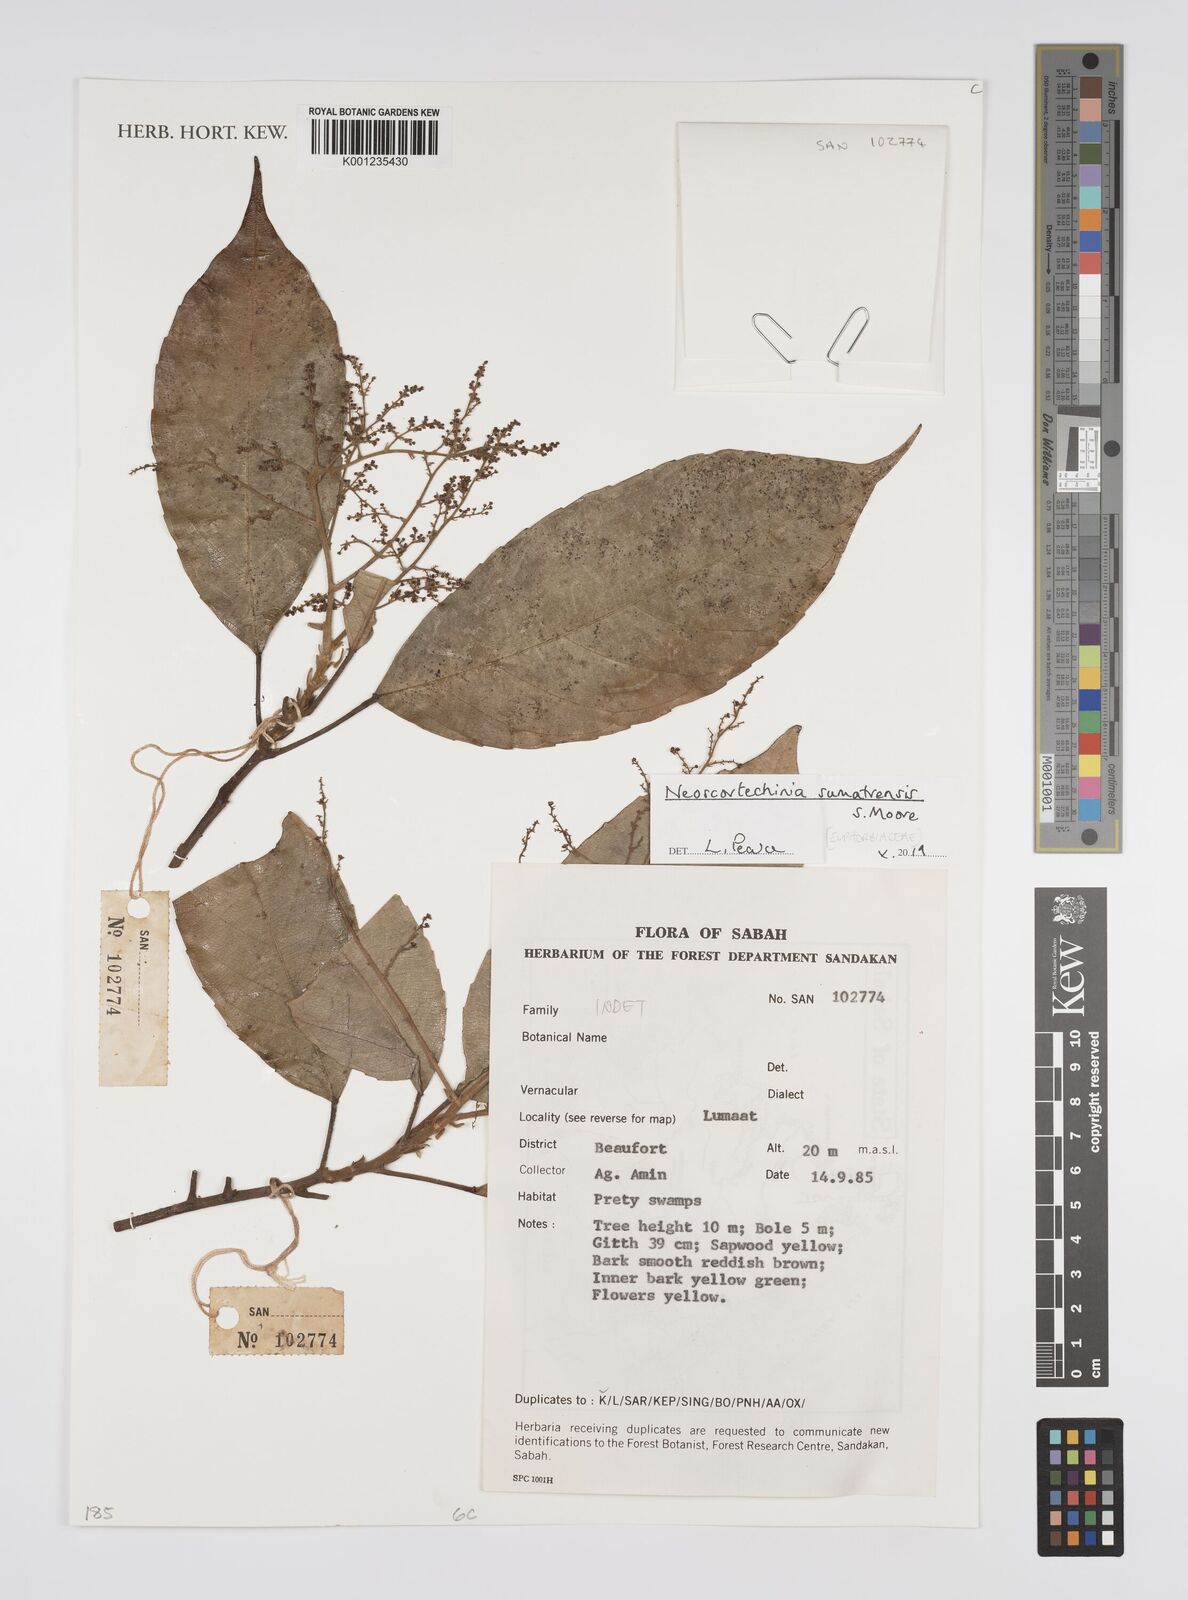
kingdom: Plantae
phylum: Tracheophyta
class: Magnoliopsida
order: Malpighiales
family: Euphorbiaceae
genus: Neoscortechinia
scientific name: Neoscortechinia sumatrensis
